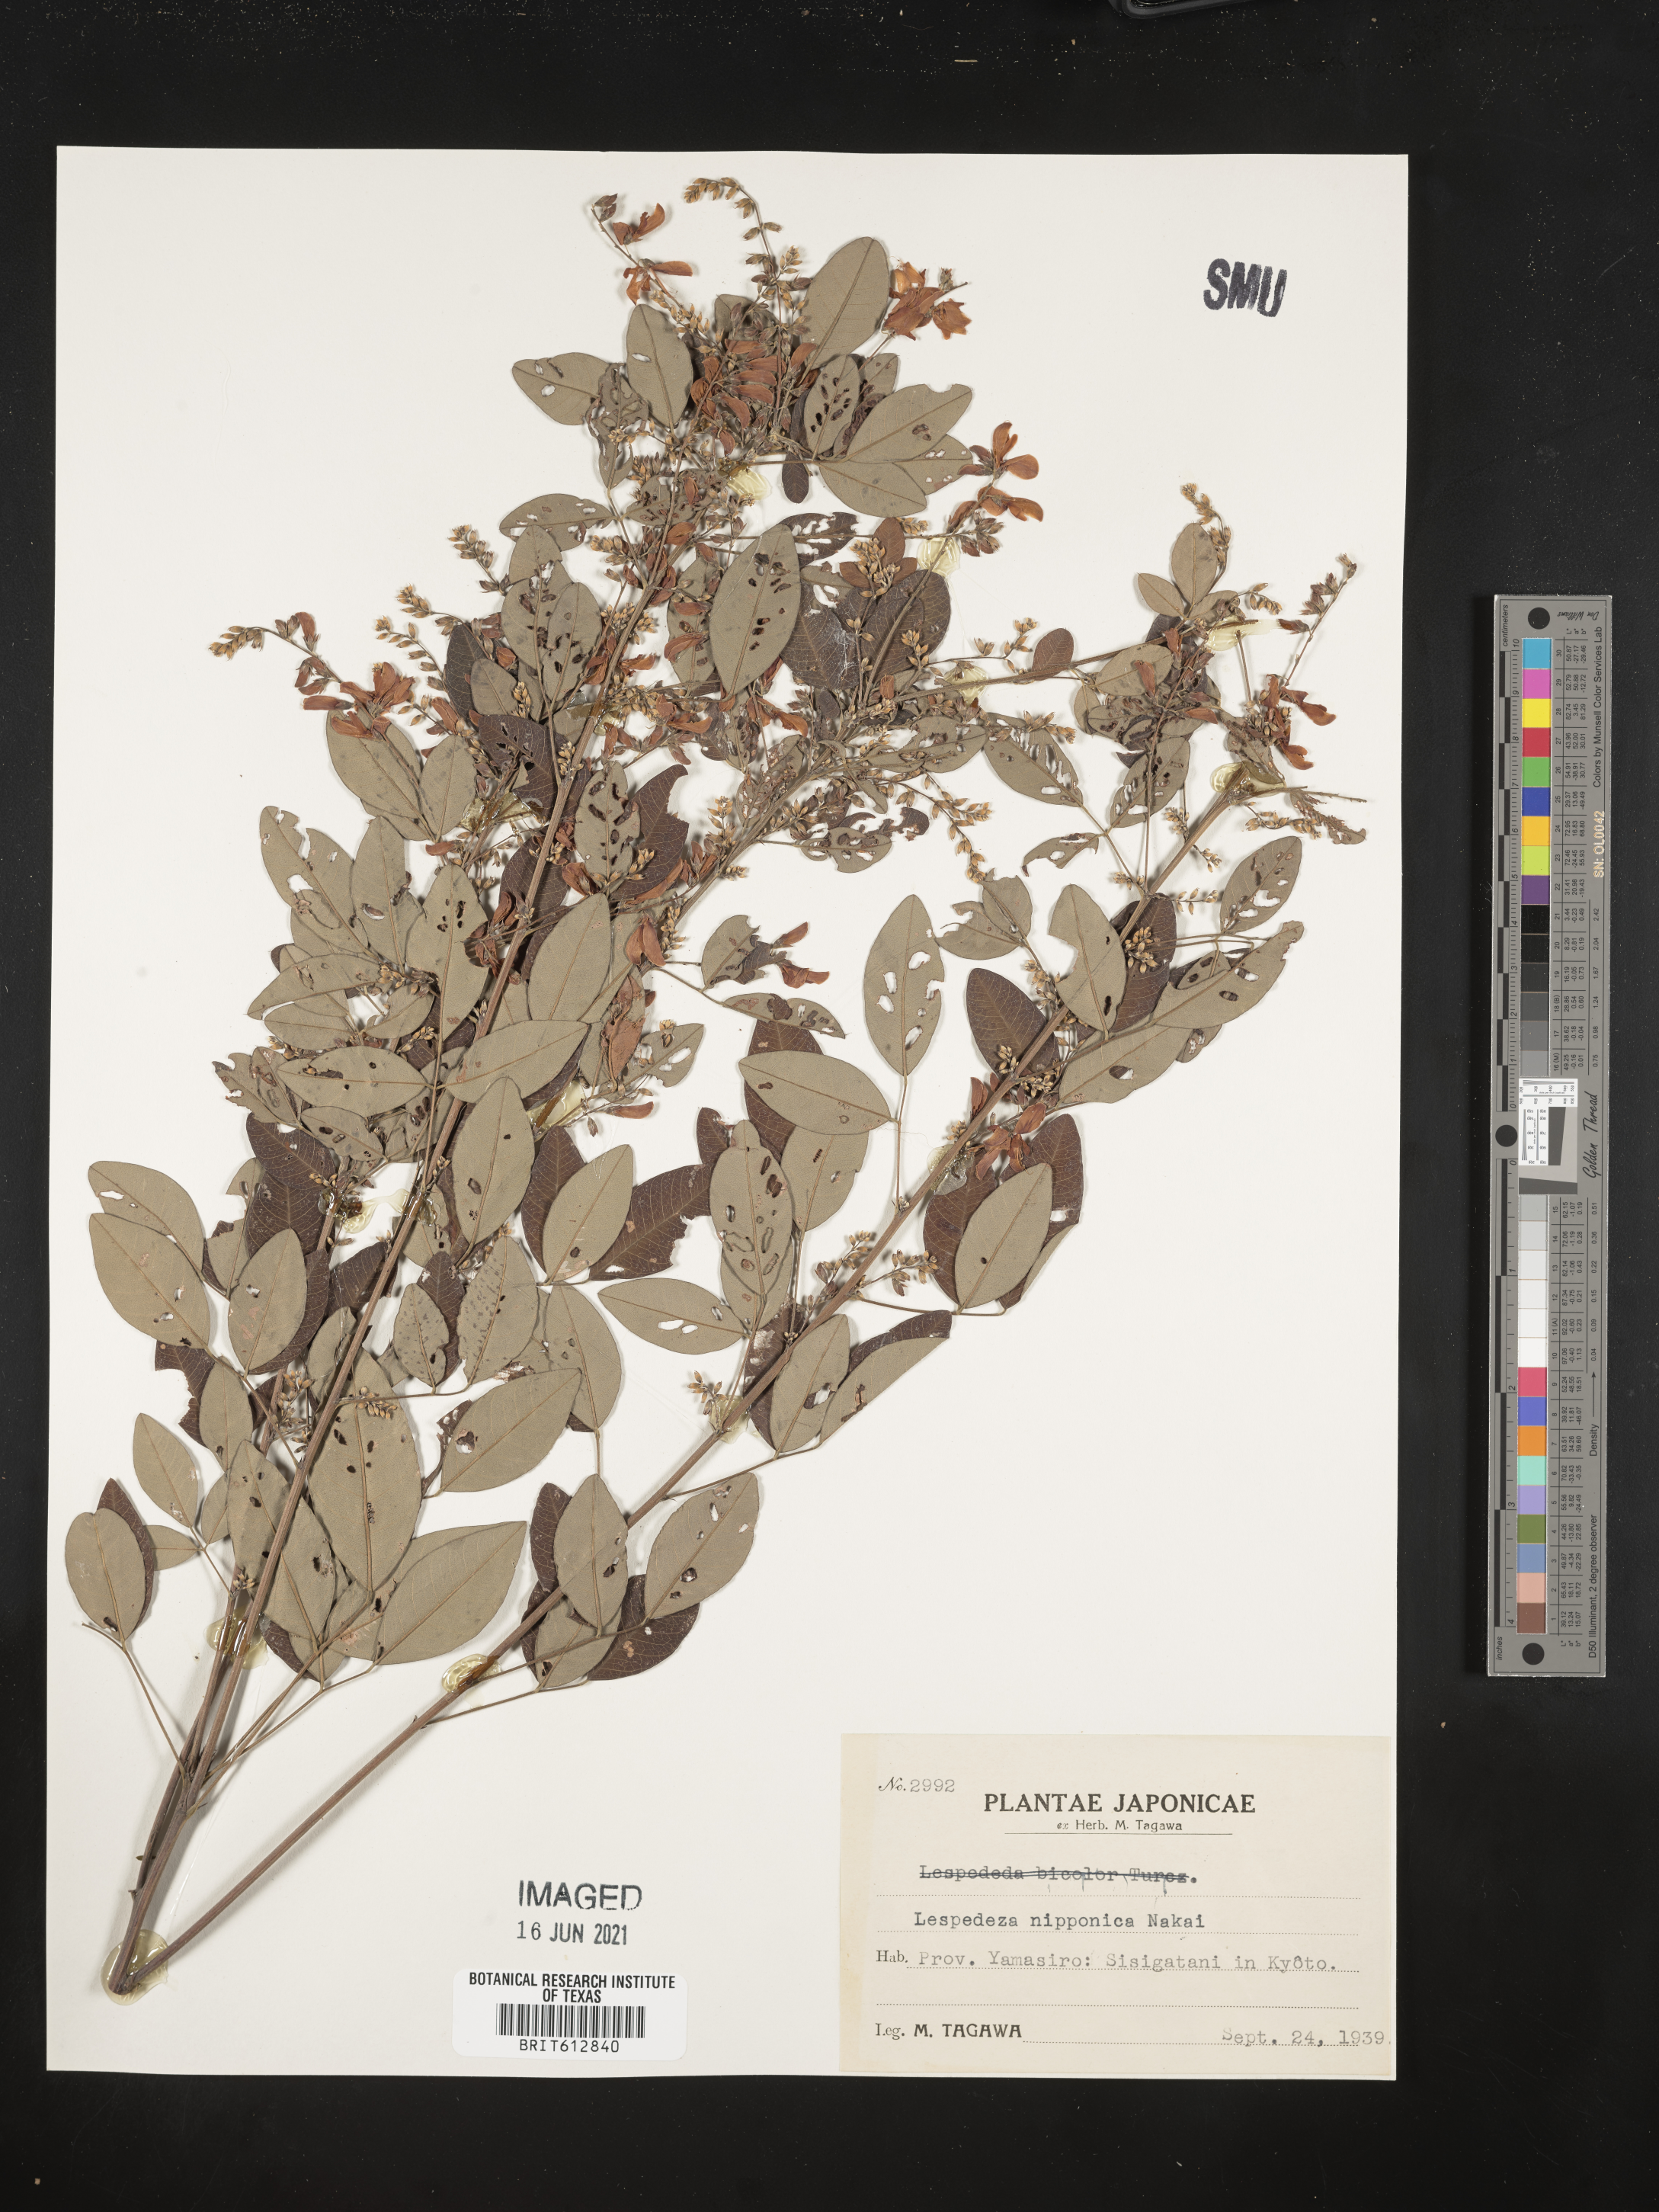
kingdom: Plantae
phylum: Tracheophyta
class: Magnoliopsida
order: Fabales
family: Fabaceae
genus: Lespedeza
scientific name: Lespedeza thunbergii
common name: Thunberg's lespedeza
